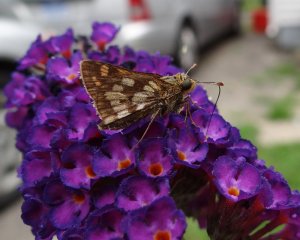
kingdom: Animalia
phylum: Arthropoda
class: Insecta
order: Lepidoptera
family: Hesperiidae
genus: Polites
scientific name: Polites coras
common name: Peck's Skipper
